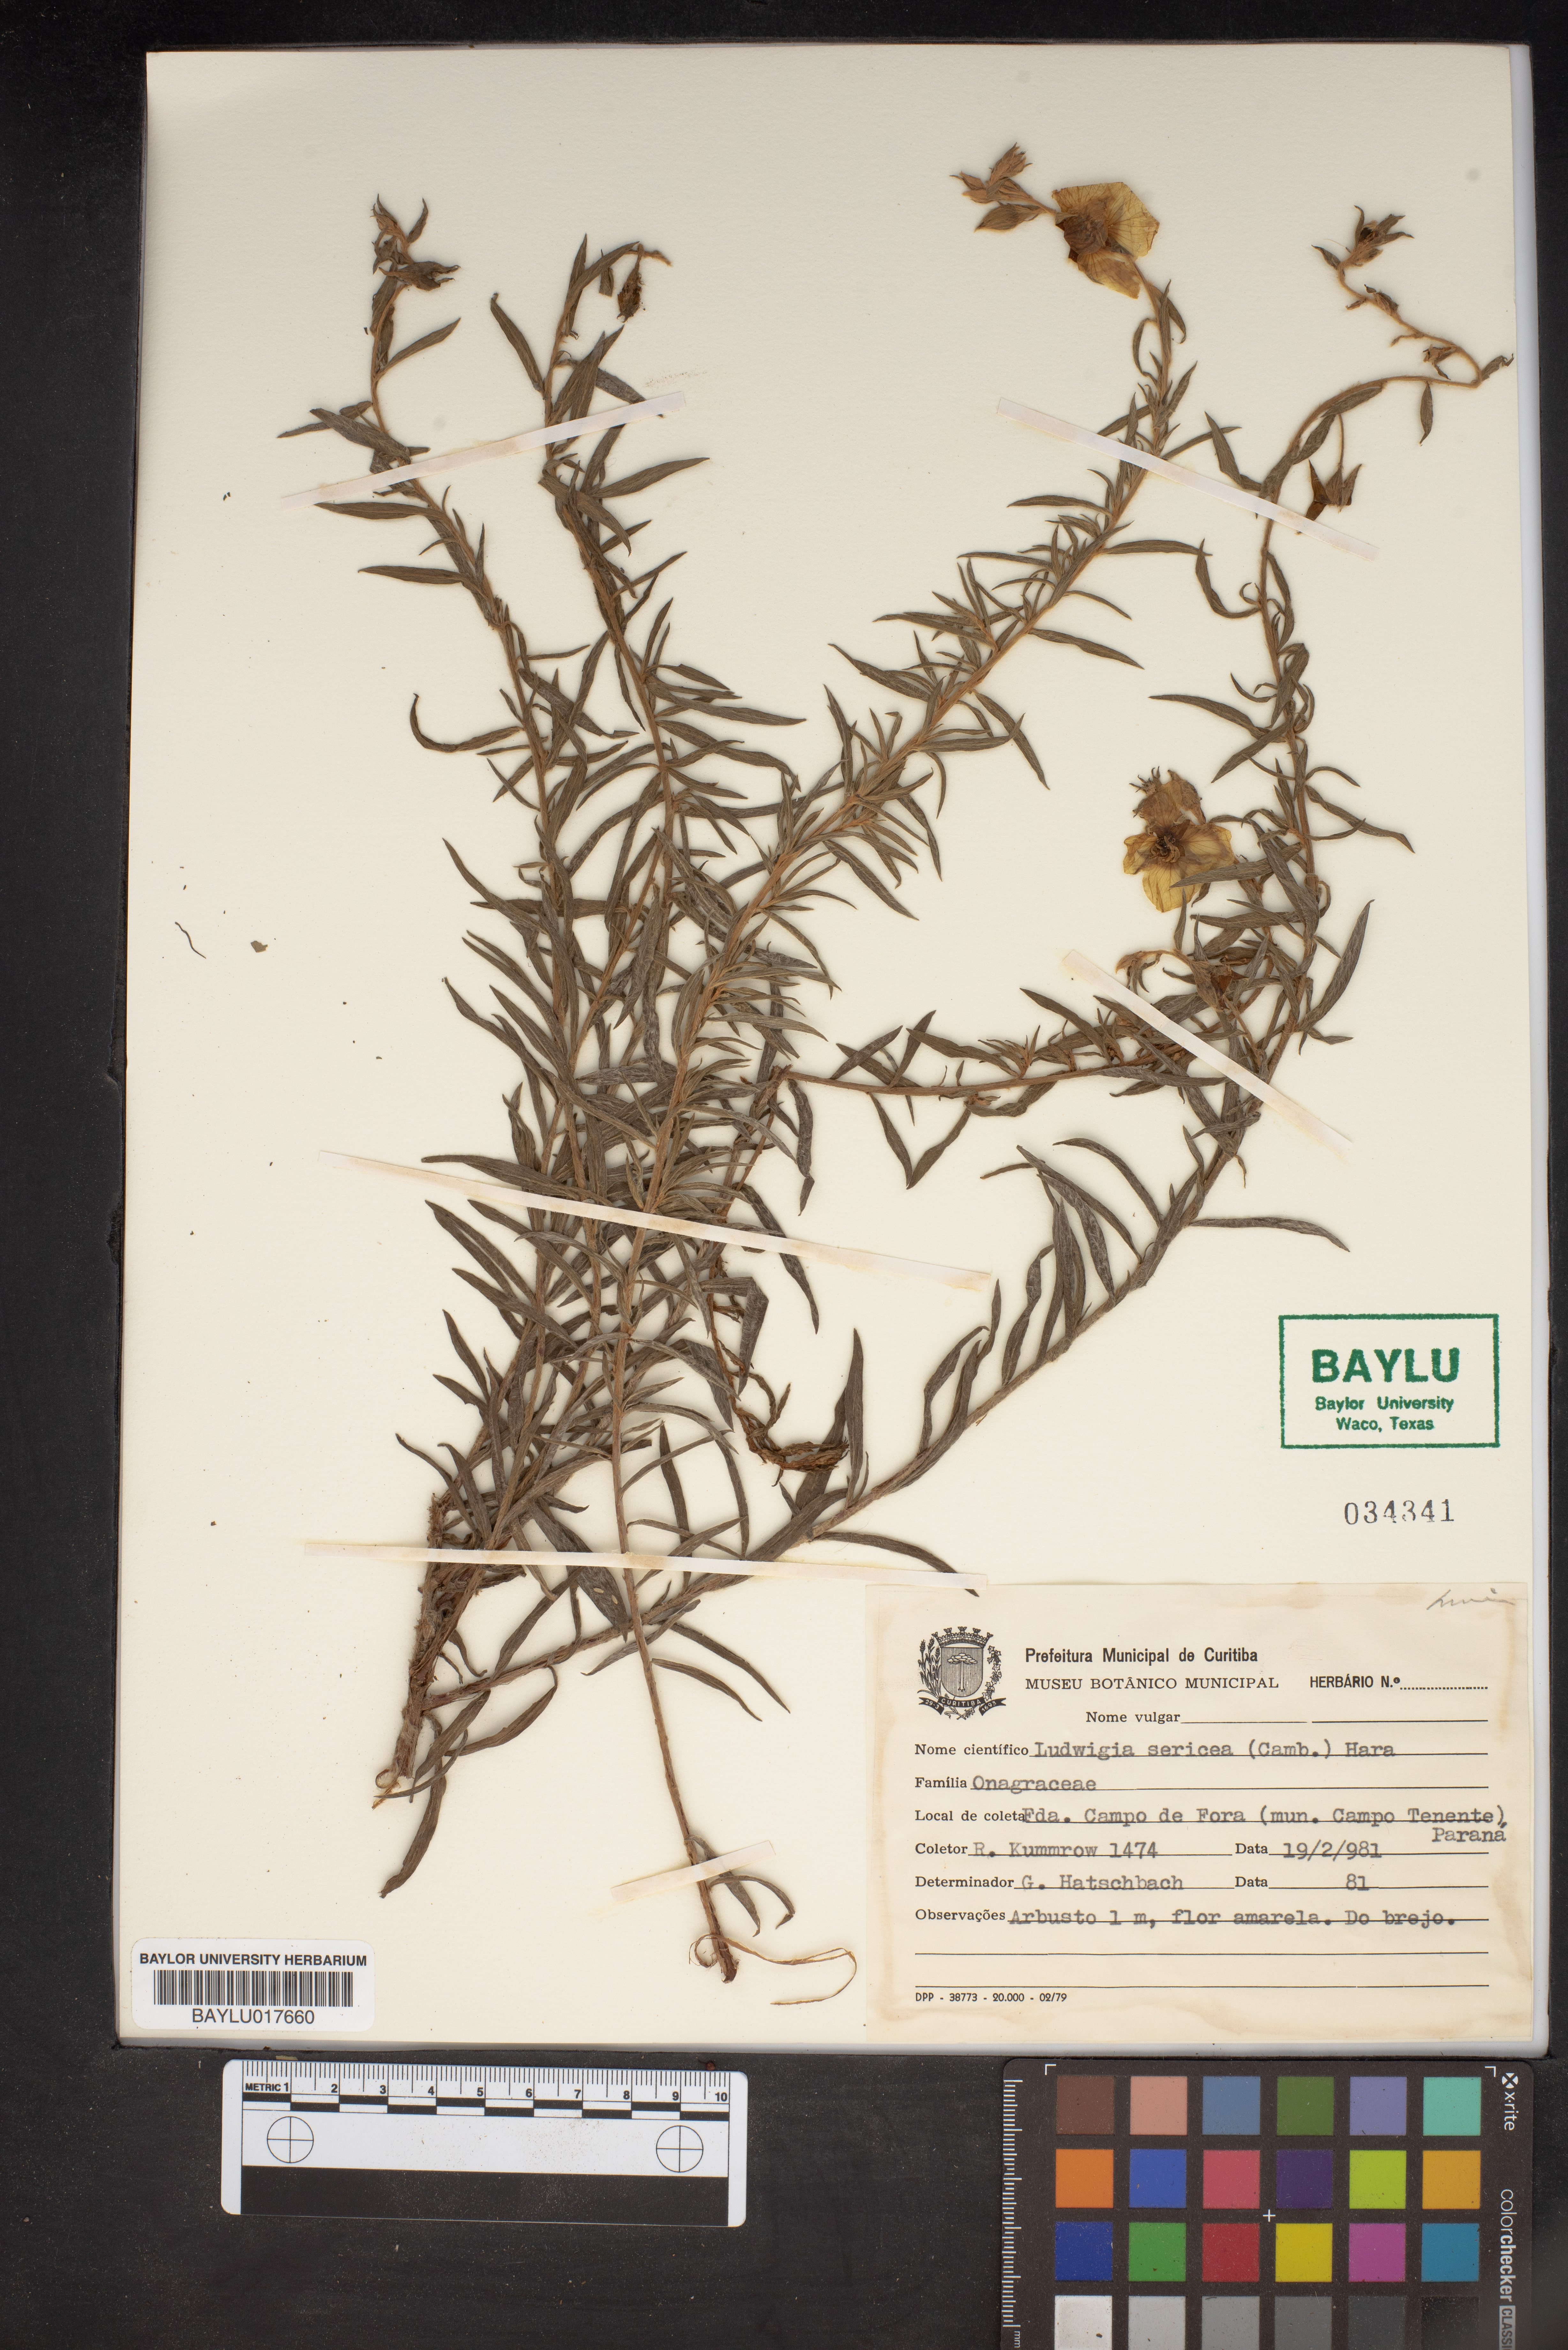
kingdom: Plantae
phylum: Tracheophyta
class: Magnoliopsida
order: Myrtales
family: Onagraceae
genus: Ludwigia
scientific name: Ludwigia sericea
